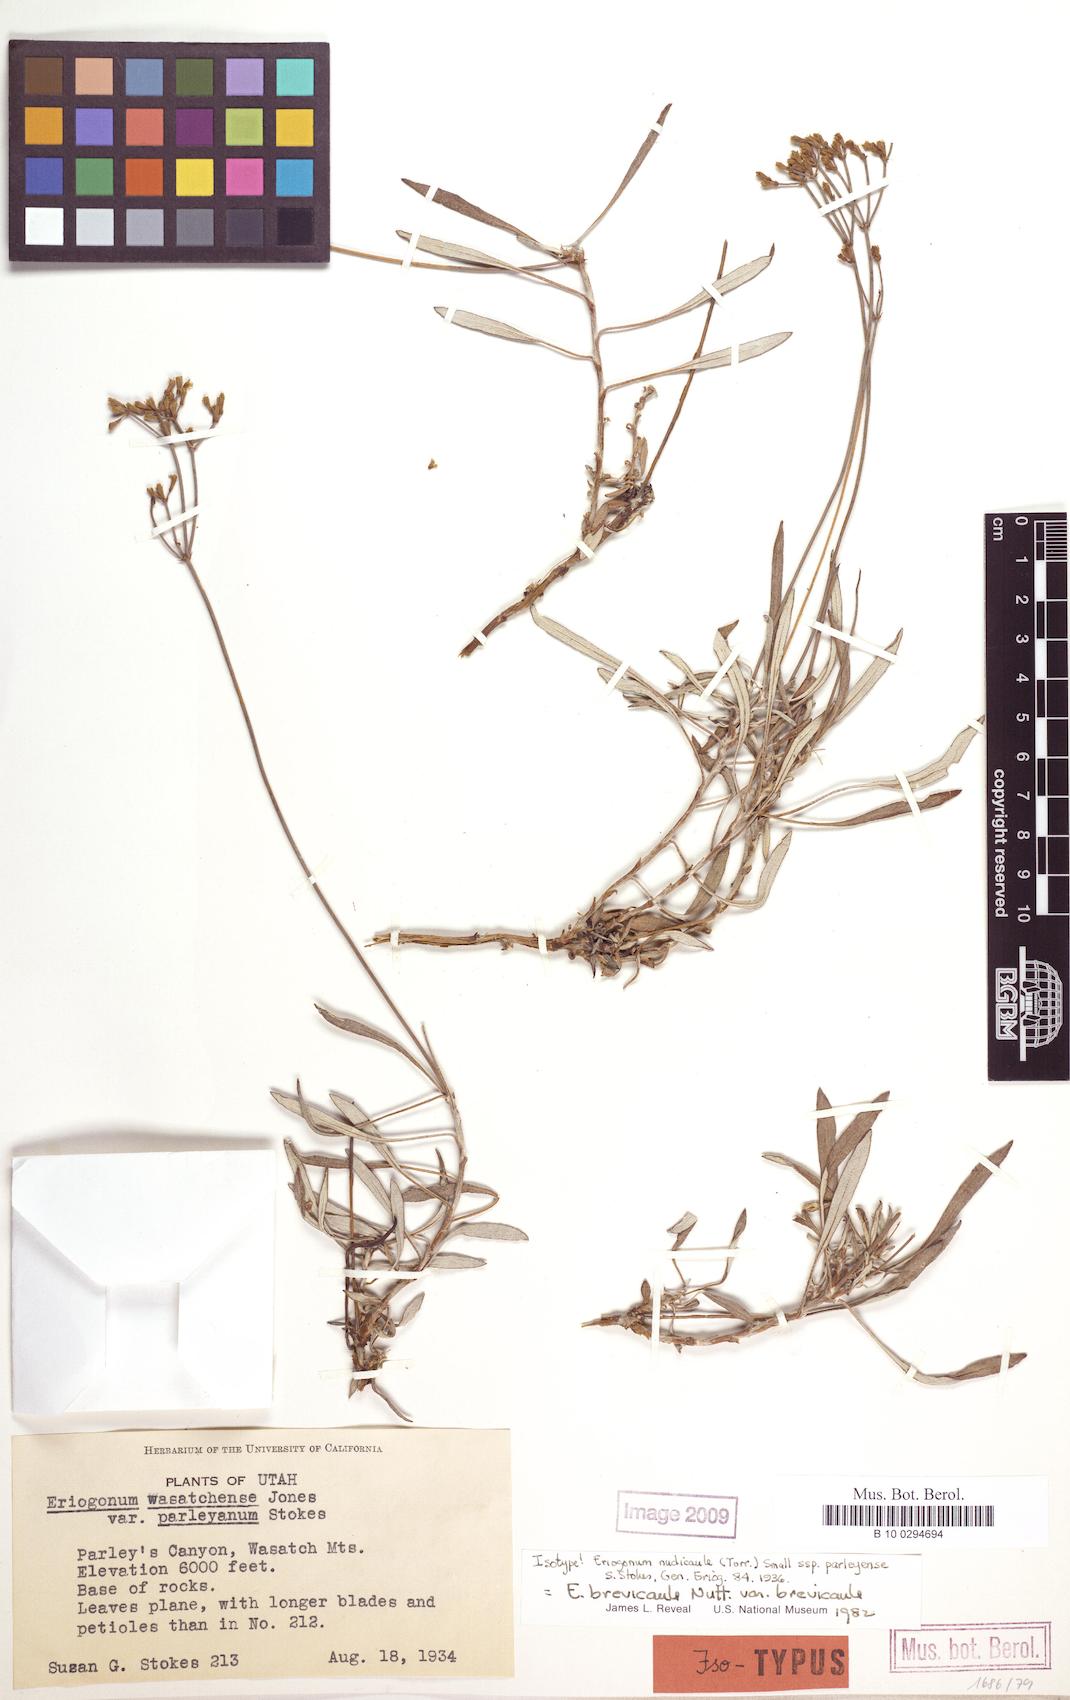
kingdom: Plantae
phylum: Tracheophyta
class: Magnoliopsida
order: Caryophyllales
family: Polygonaceae
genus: Eriogonum
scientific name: Eriogonum brevicaule
